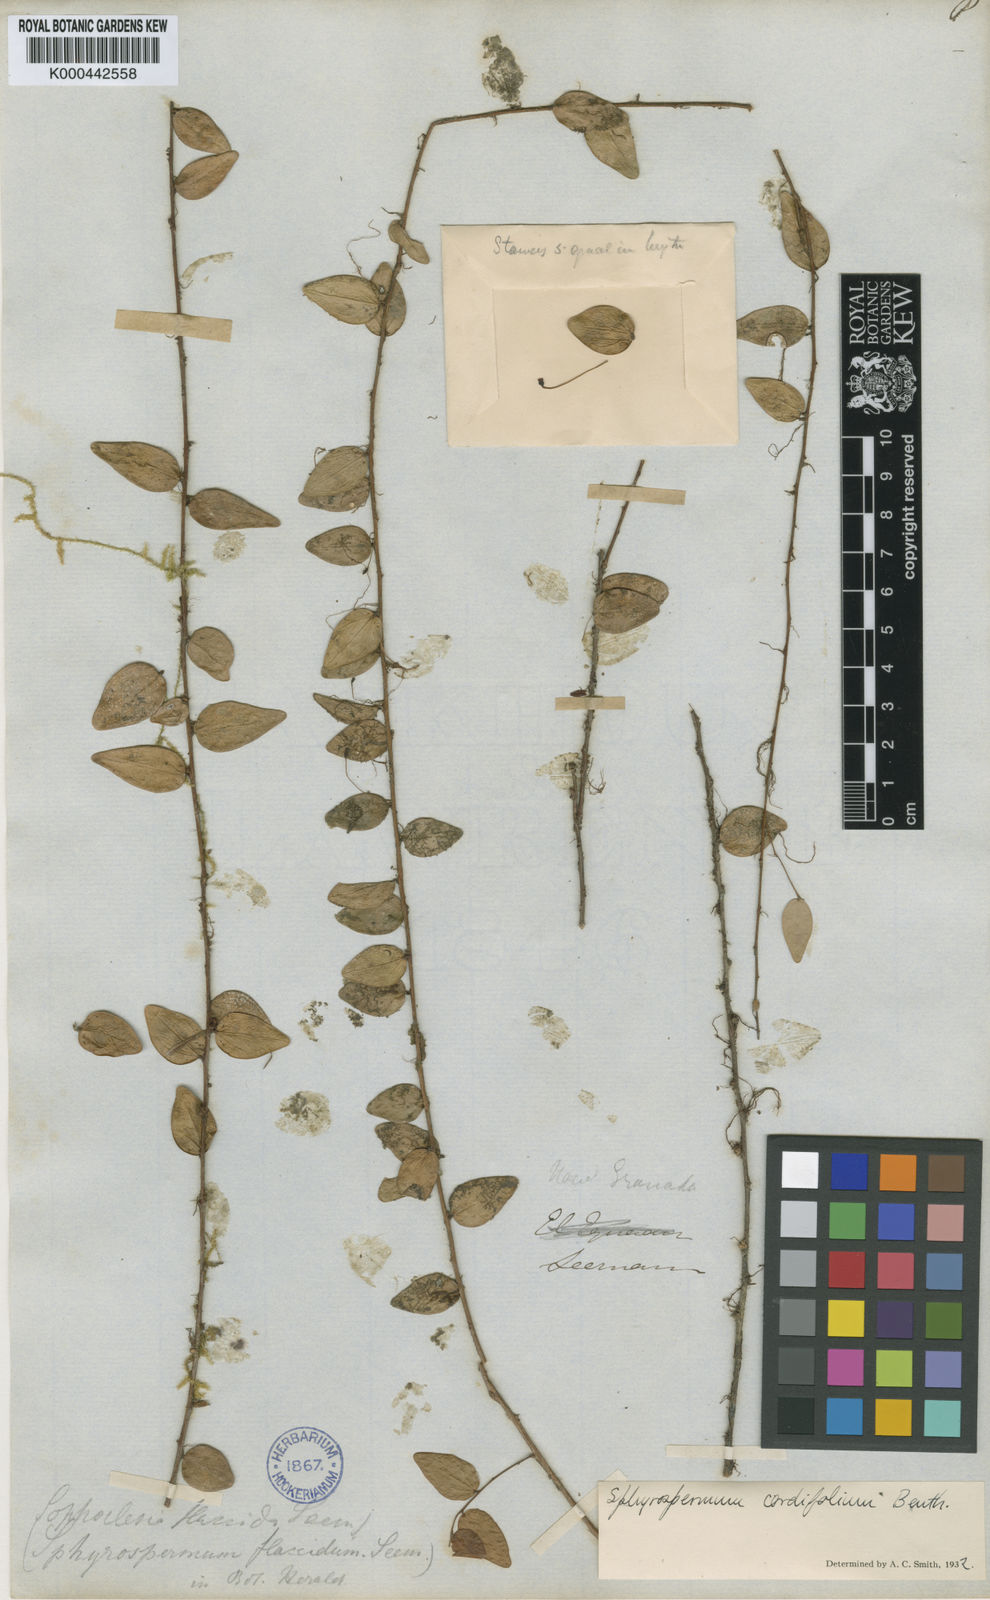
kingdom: Plantae
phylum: Tracheophyta
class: Magnoliopsida
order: Ericales
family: Ericaceae
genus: Sphyrospermum
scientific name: Sphyrospermum cordifolium
